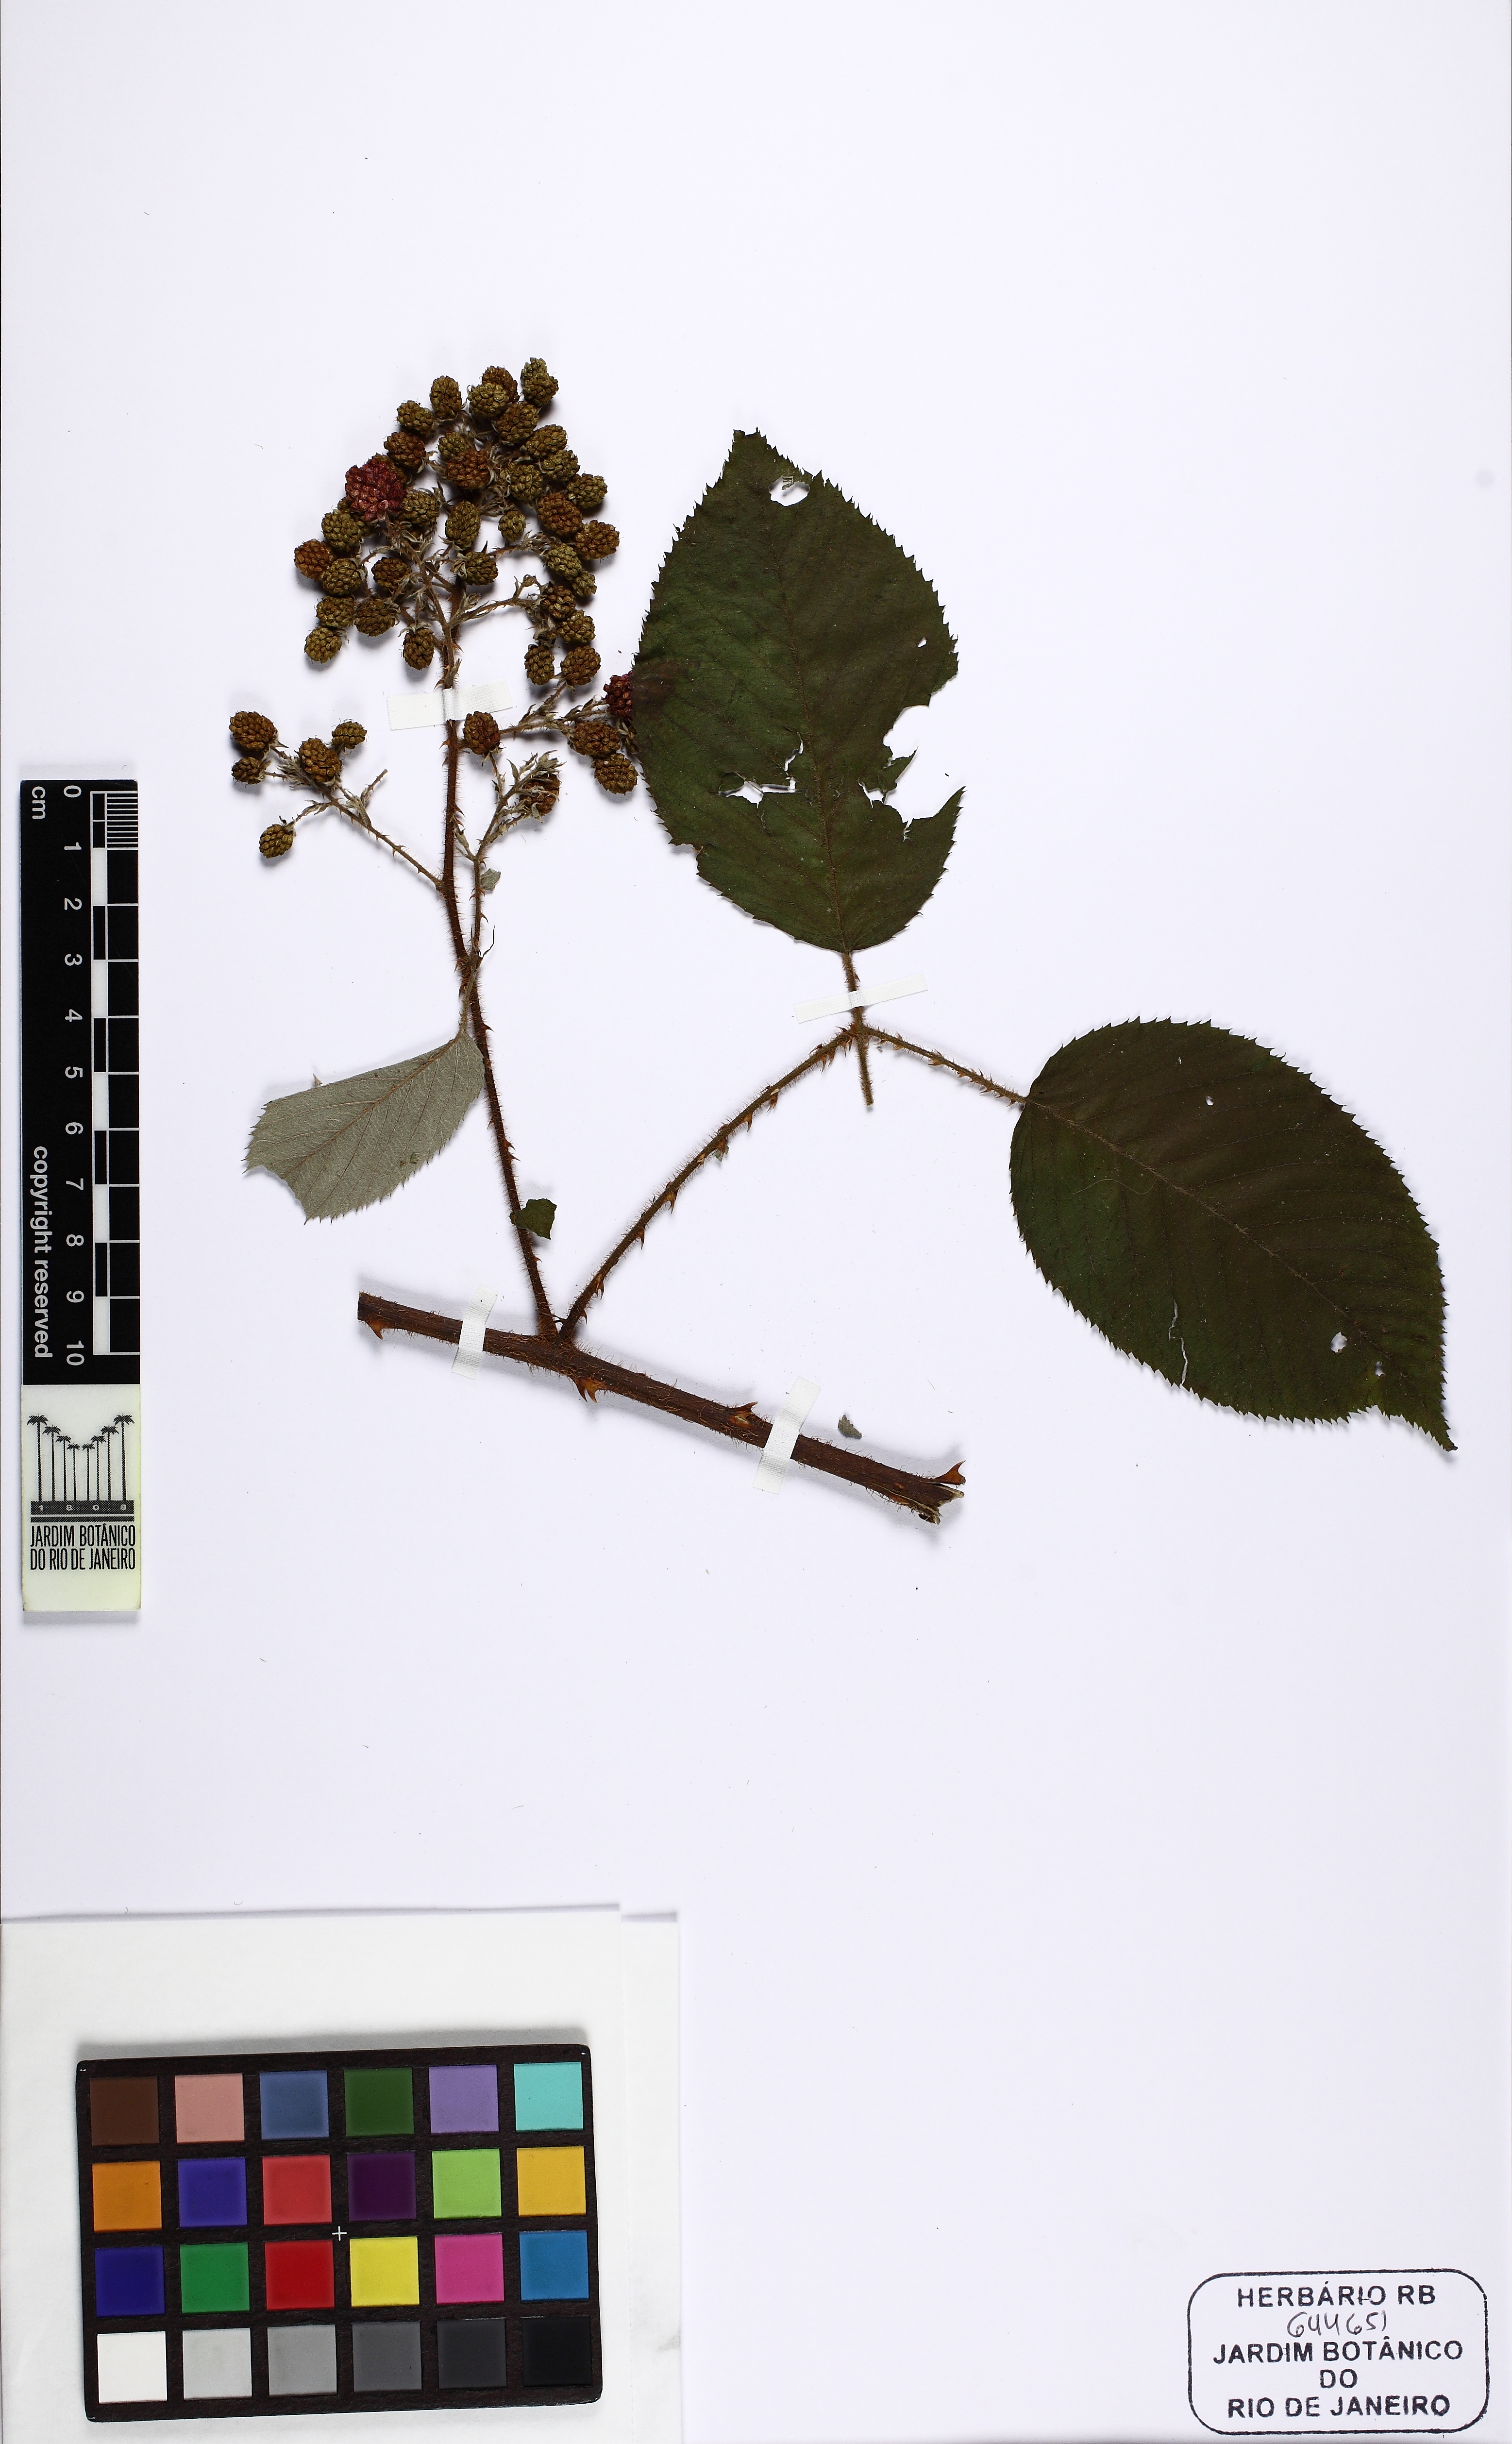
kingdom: Plantae
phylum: Tracheophyta
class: Magnoliopsida
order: Rosales
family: Rosaceae
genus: Rubus
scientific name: Rubus urticifolius
